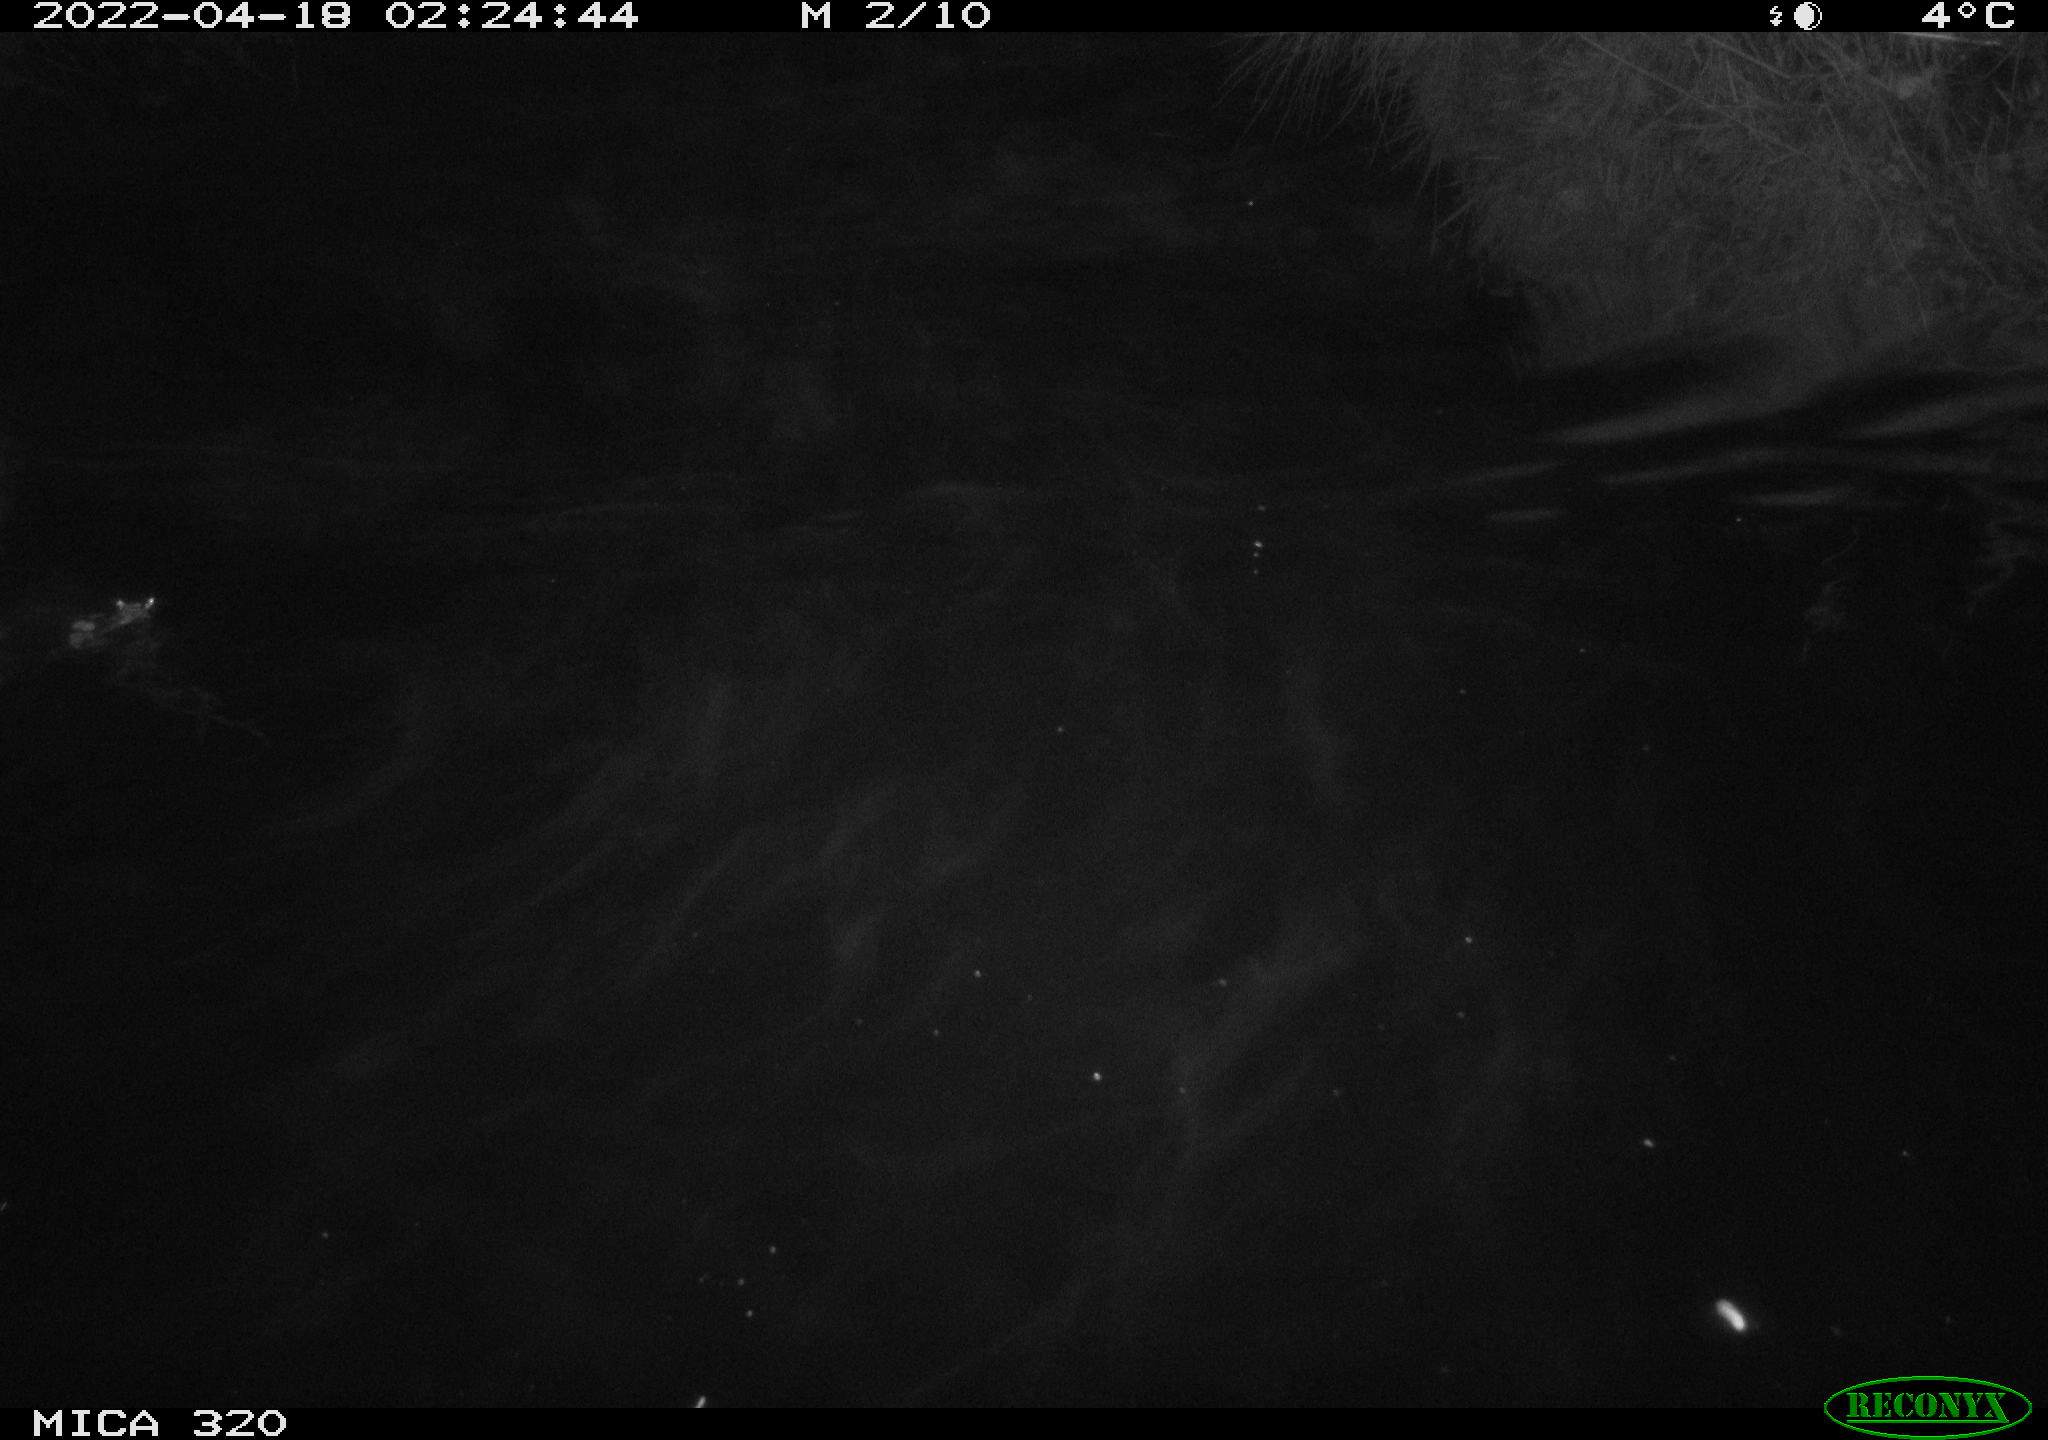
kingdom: Animalia
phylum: Chordata
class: Aves
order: Anseriformes
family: Anatidae
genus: Anas
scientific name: Anas platyrhynchos
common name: Mallard
